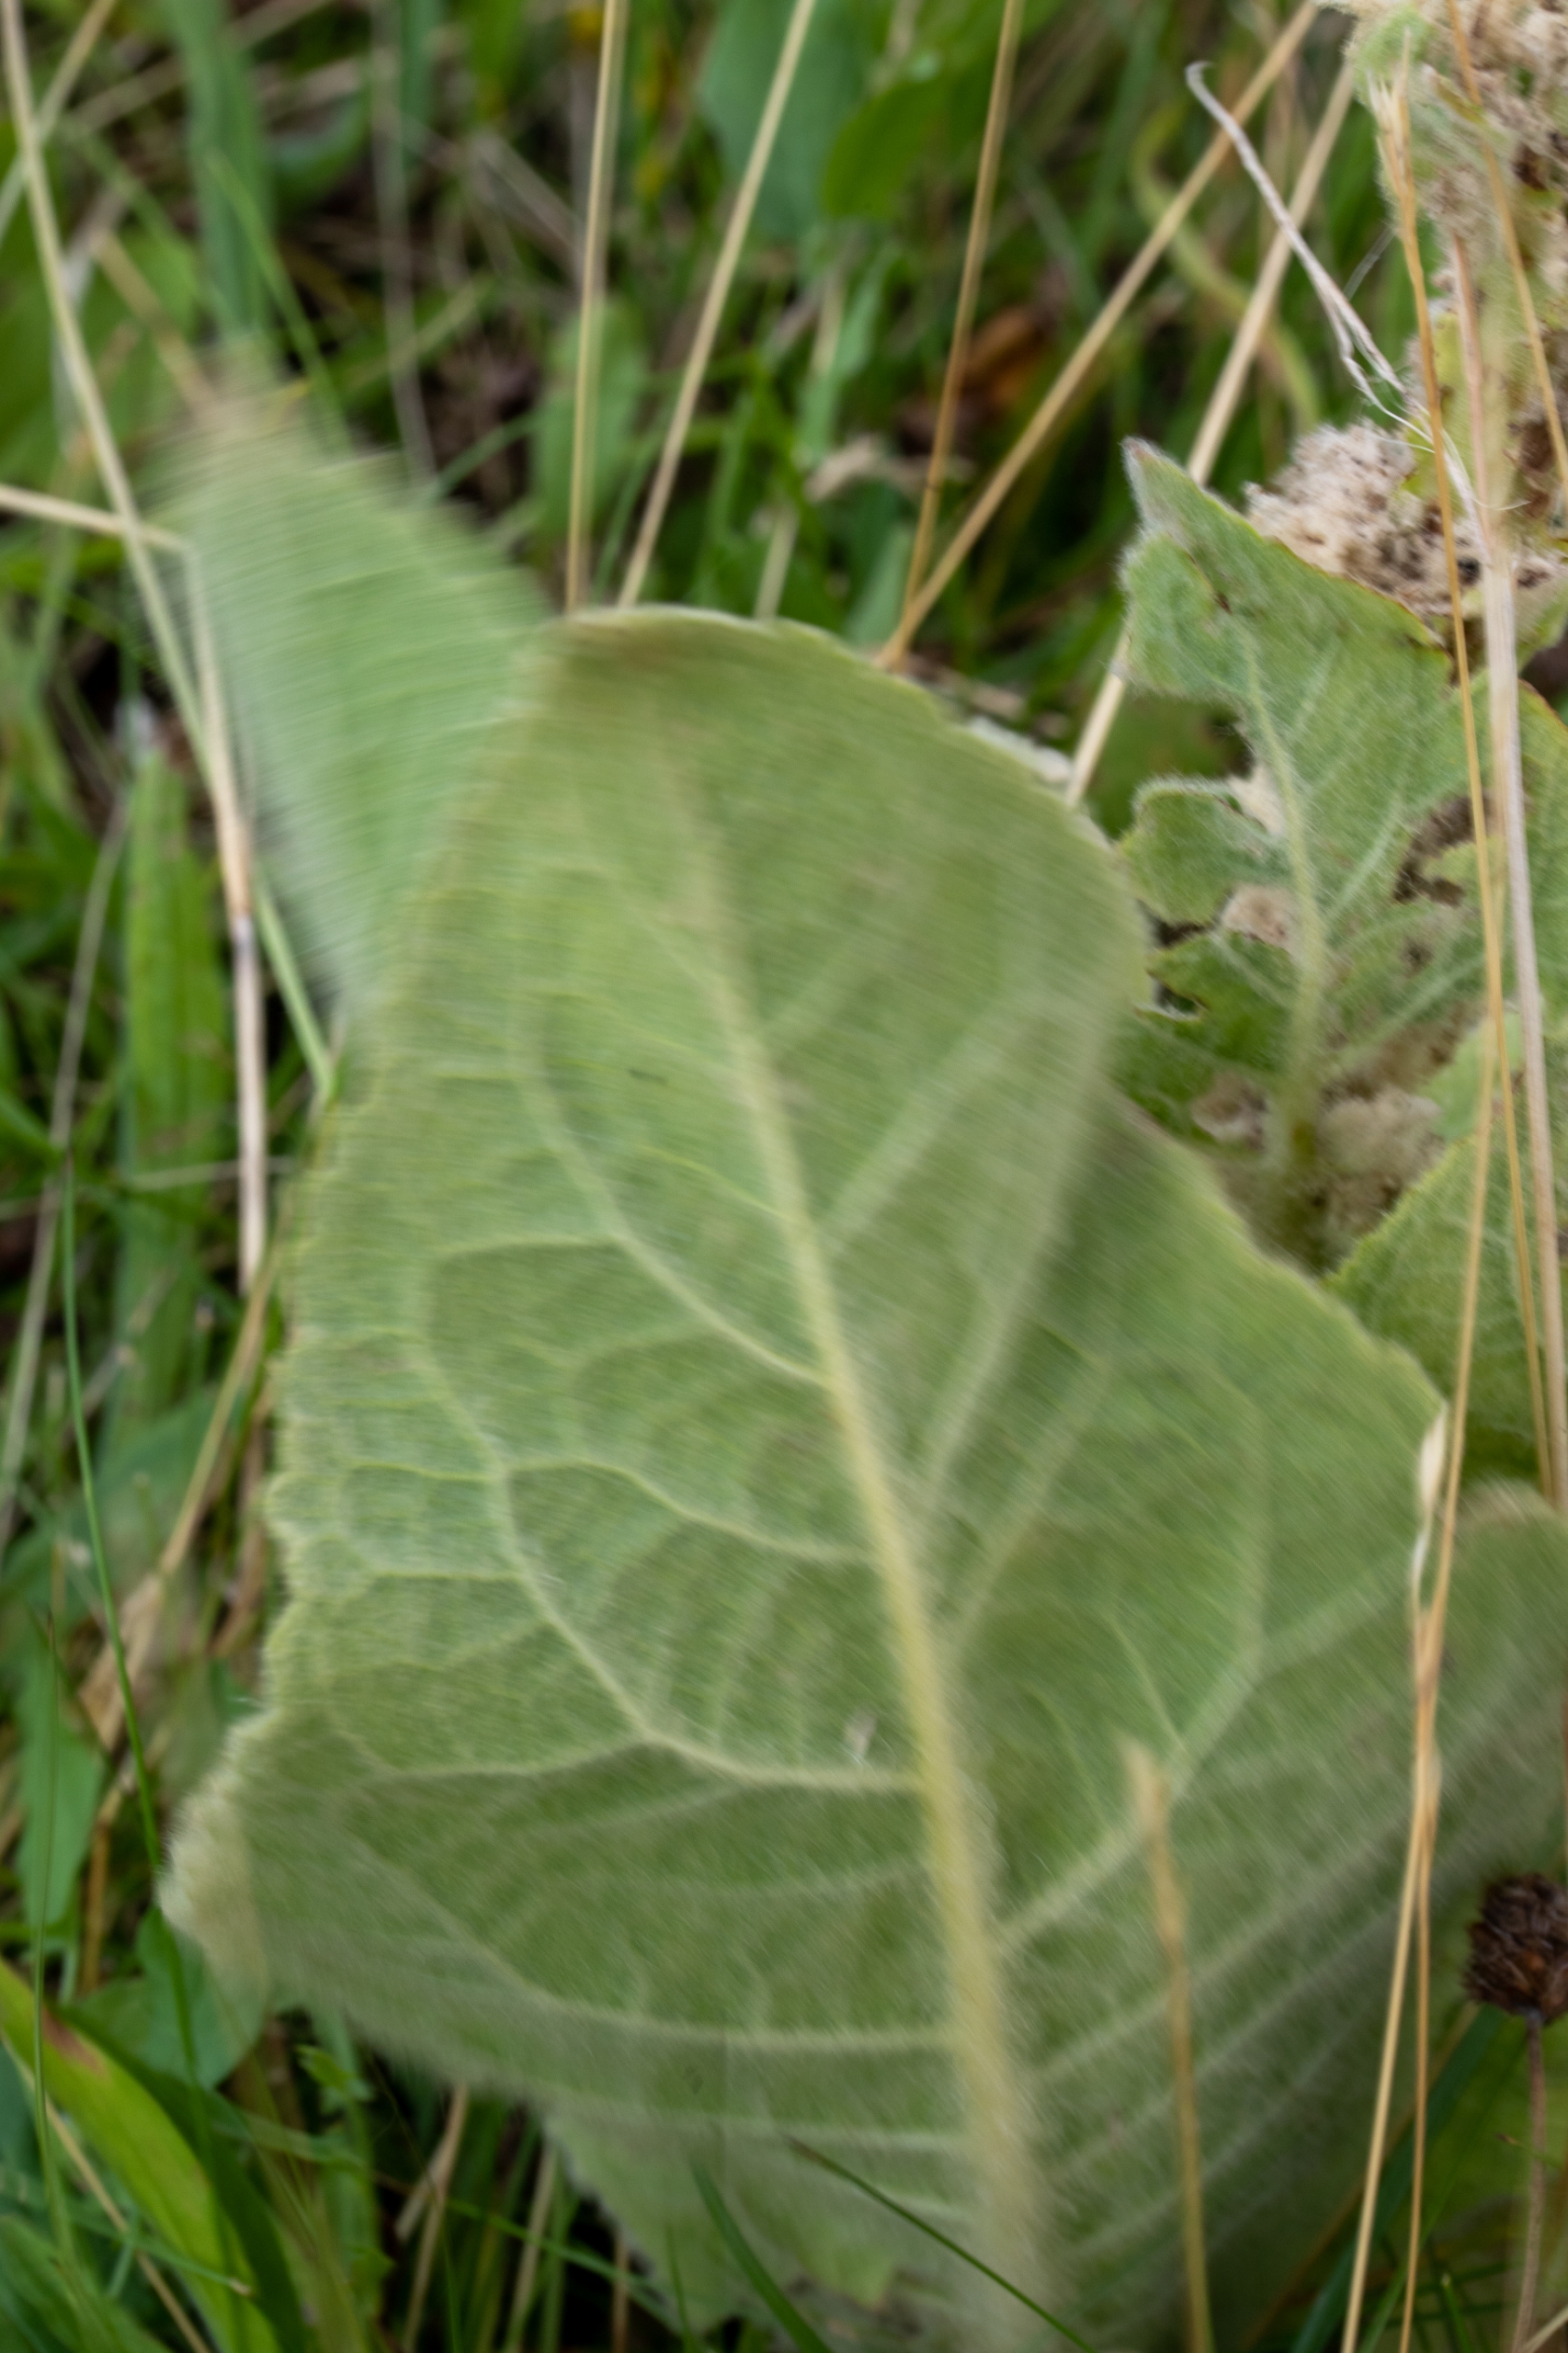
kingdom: Plantae
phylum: Tracheophyta
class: Magnoliopsida
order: Lamiales
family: Scrophulariaceae
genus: Verbascum
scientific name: Verbascum densiflorum
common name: Uldbladet kongelys
